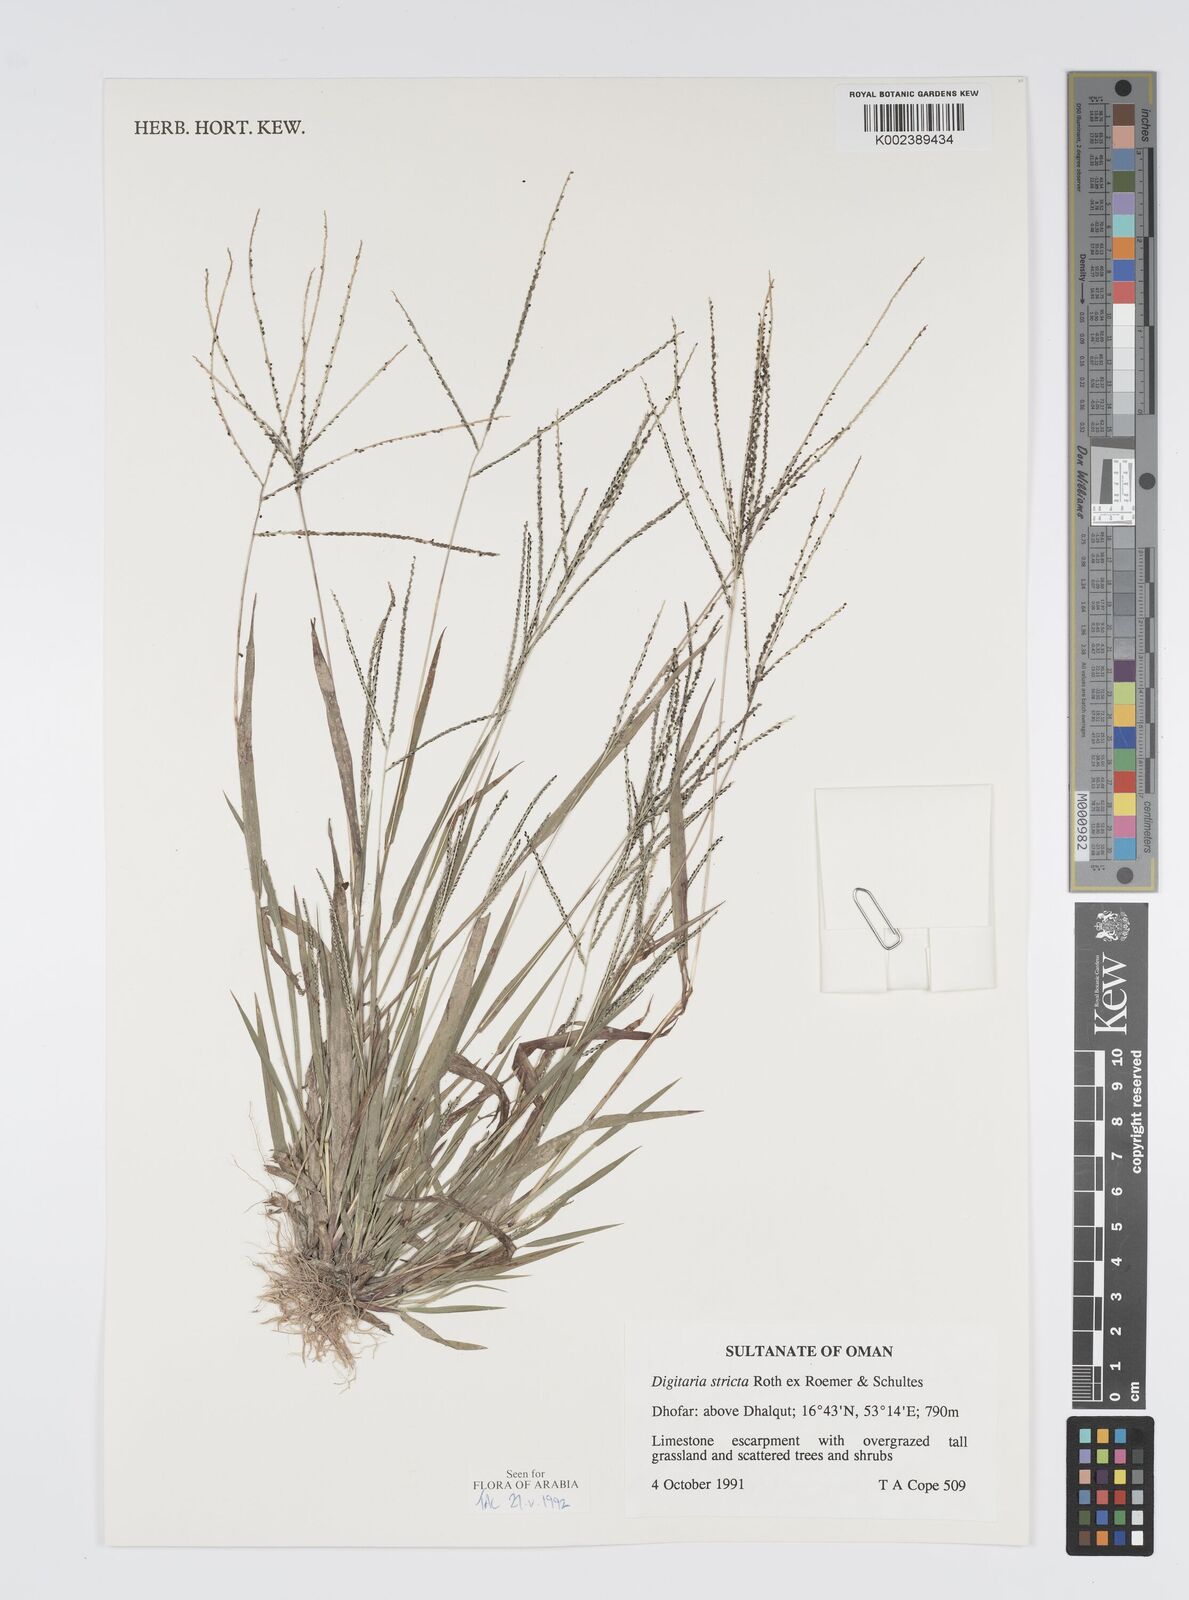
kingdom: Plantae
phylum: Tracheophyta
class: Liliopsida
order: Poales
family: Poaceae
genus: Digitaria
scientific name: Digitaria stricta
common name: Crabgrass
